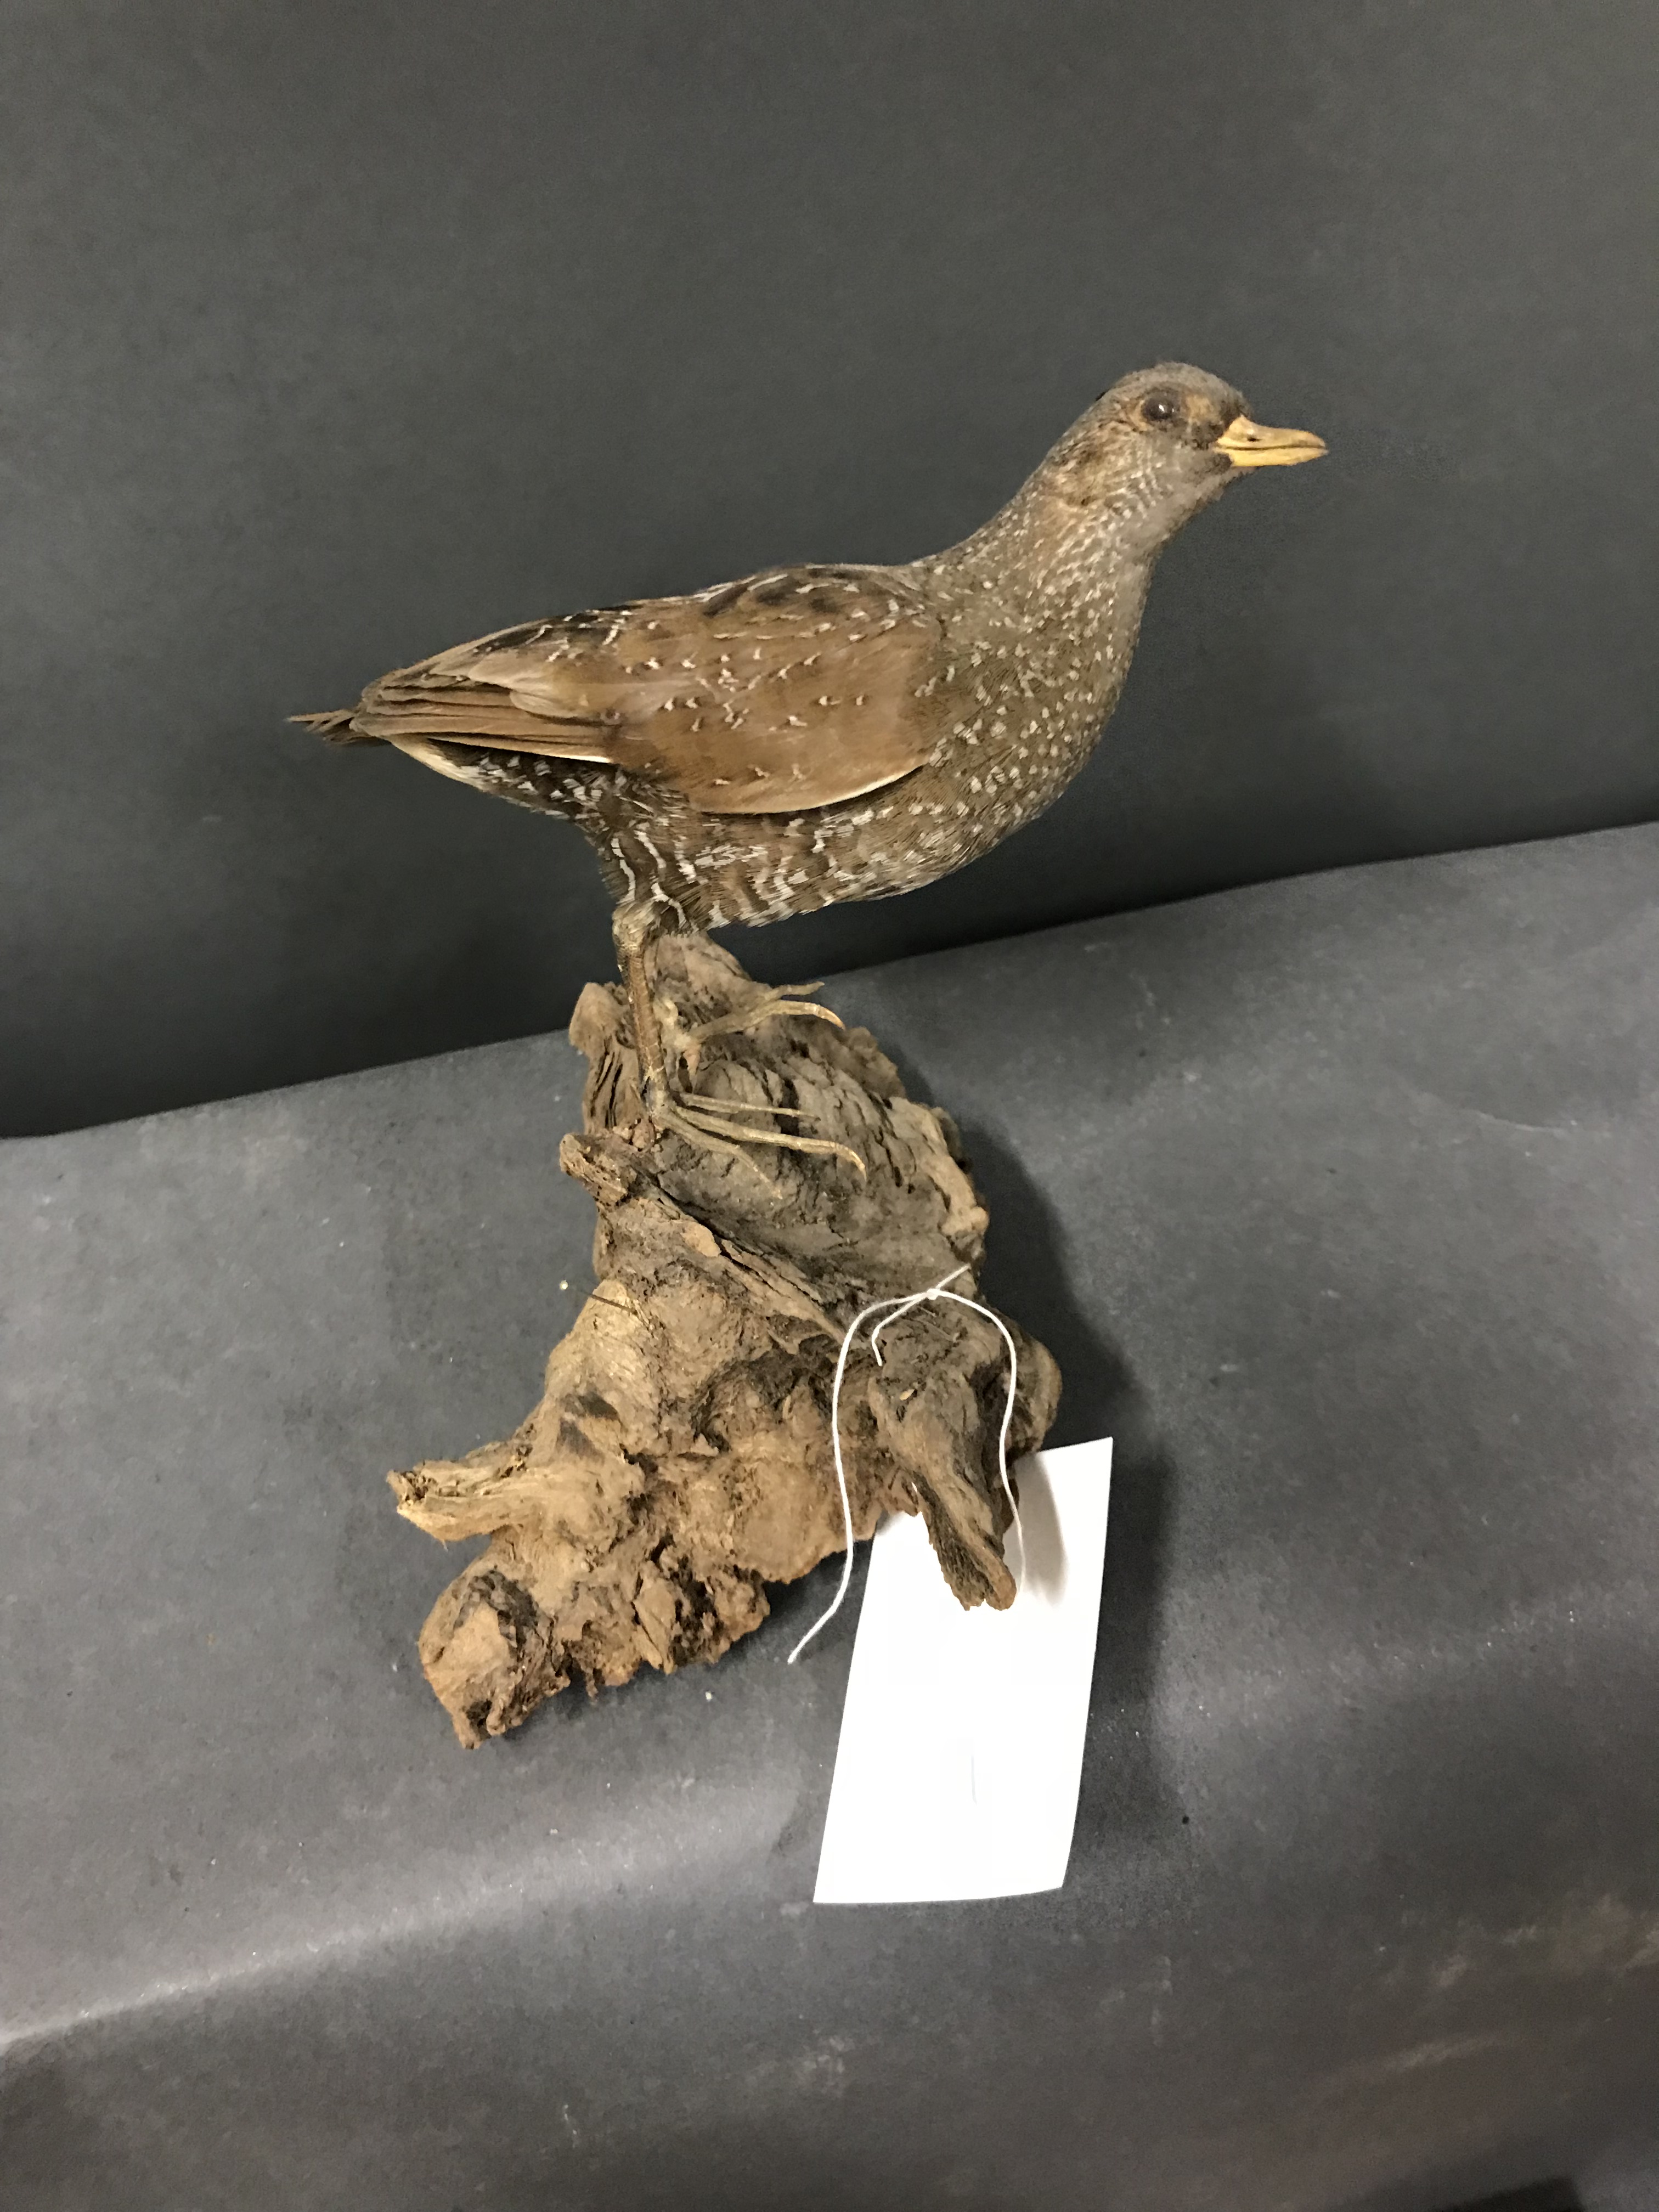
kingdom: Animalia
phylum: Chordata
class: Aves
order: Gruiformes
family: Rallidae
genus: Porzana
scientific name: Porzana porzana
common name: Spotted crake
